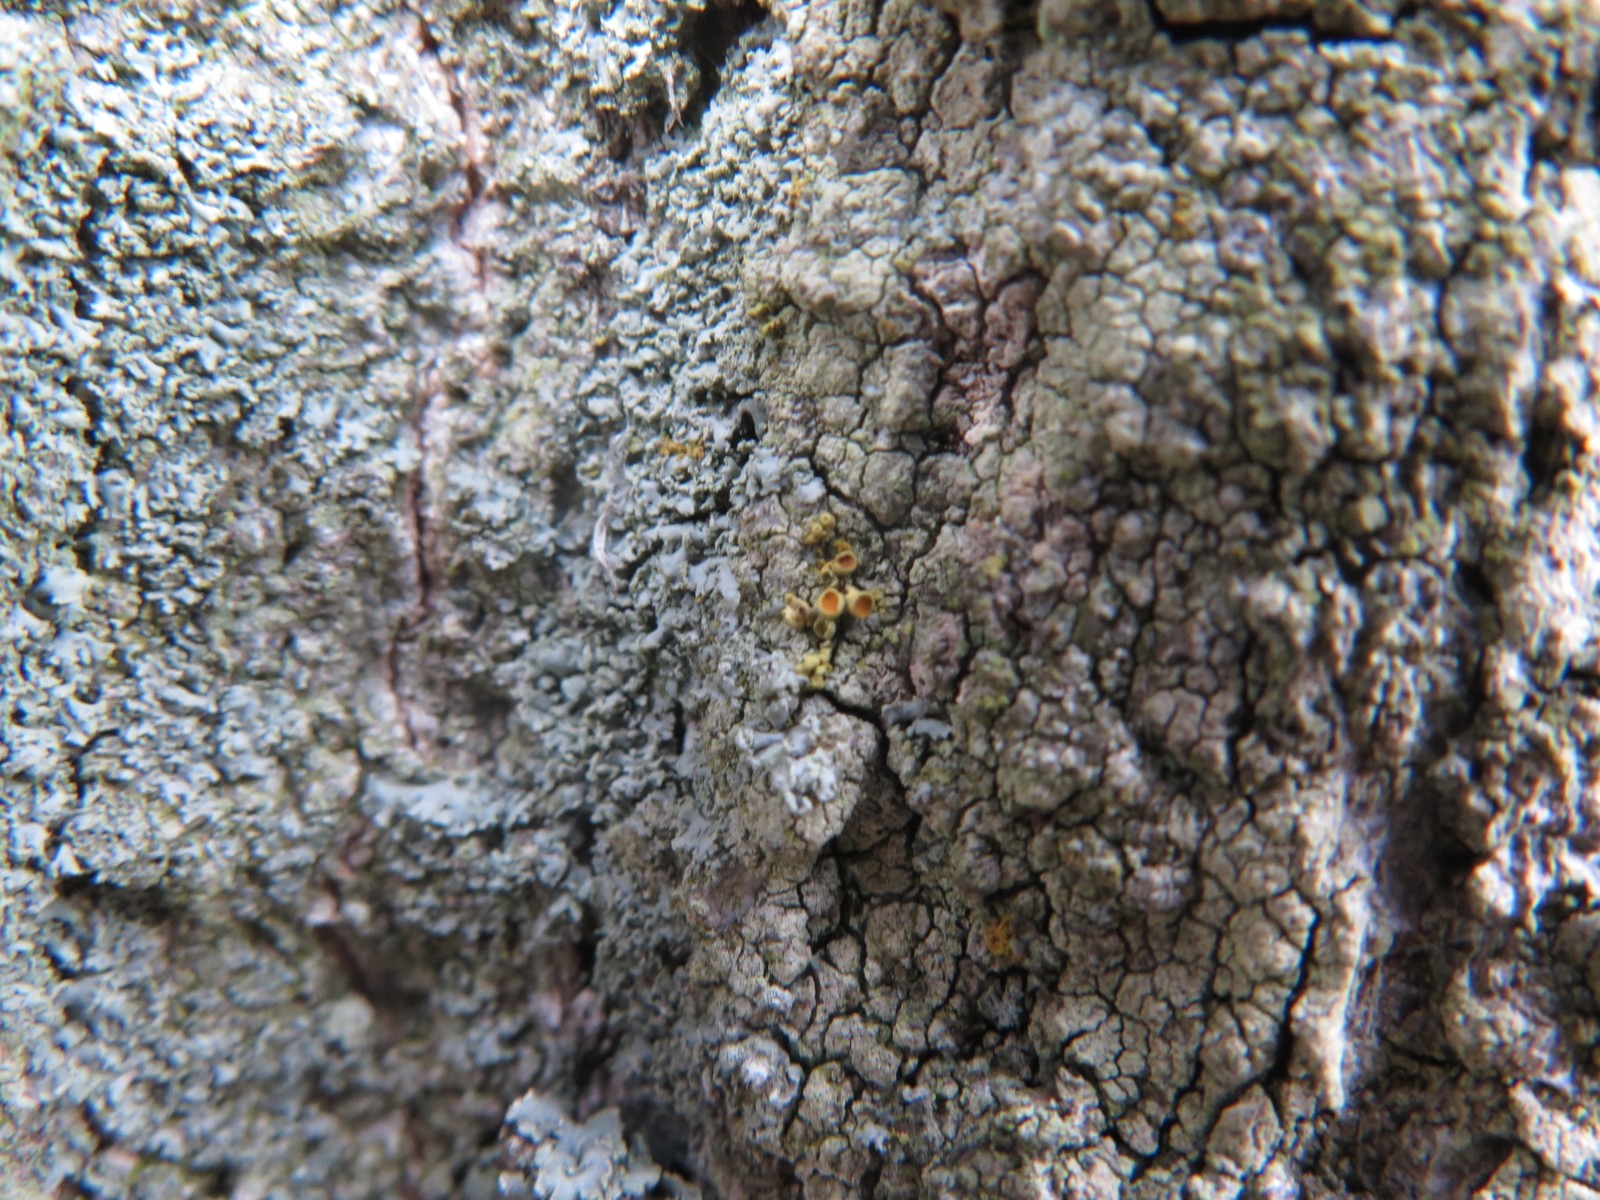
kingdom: Fungi
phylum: Ascomycota
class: Lecanoromycetes
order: Teloschistales
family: Teloschistaceae
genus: Polycauliona
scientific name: Polycauliona polycarpa
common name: mangefrugtet orangelav
